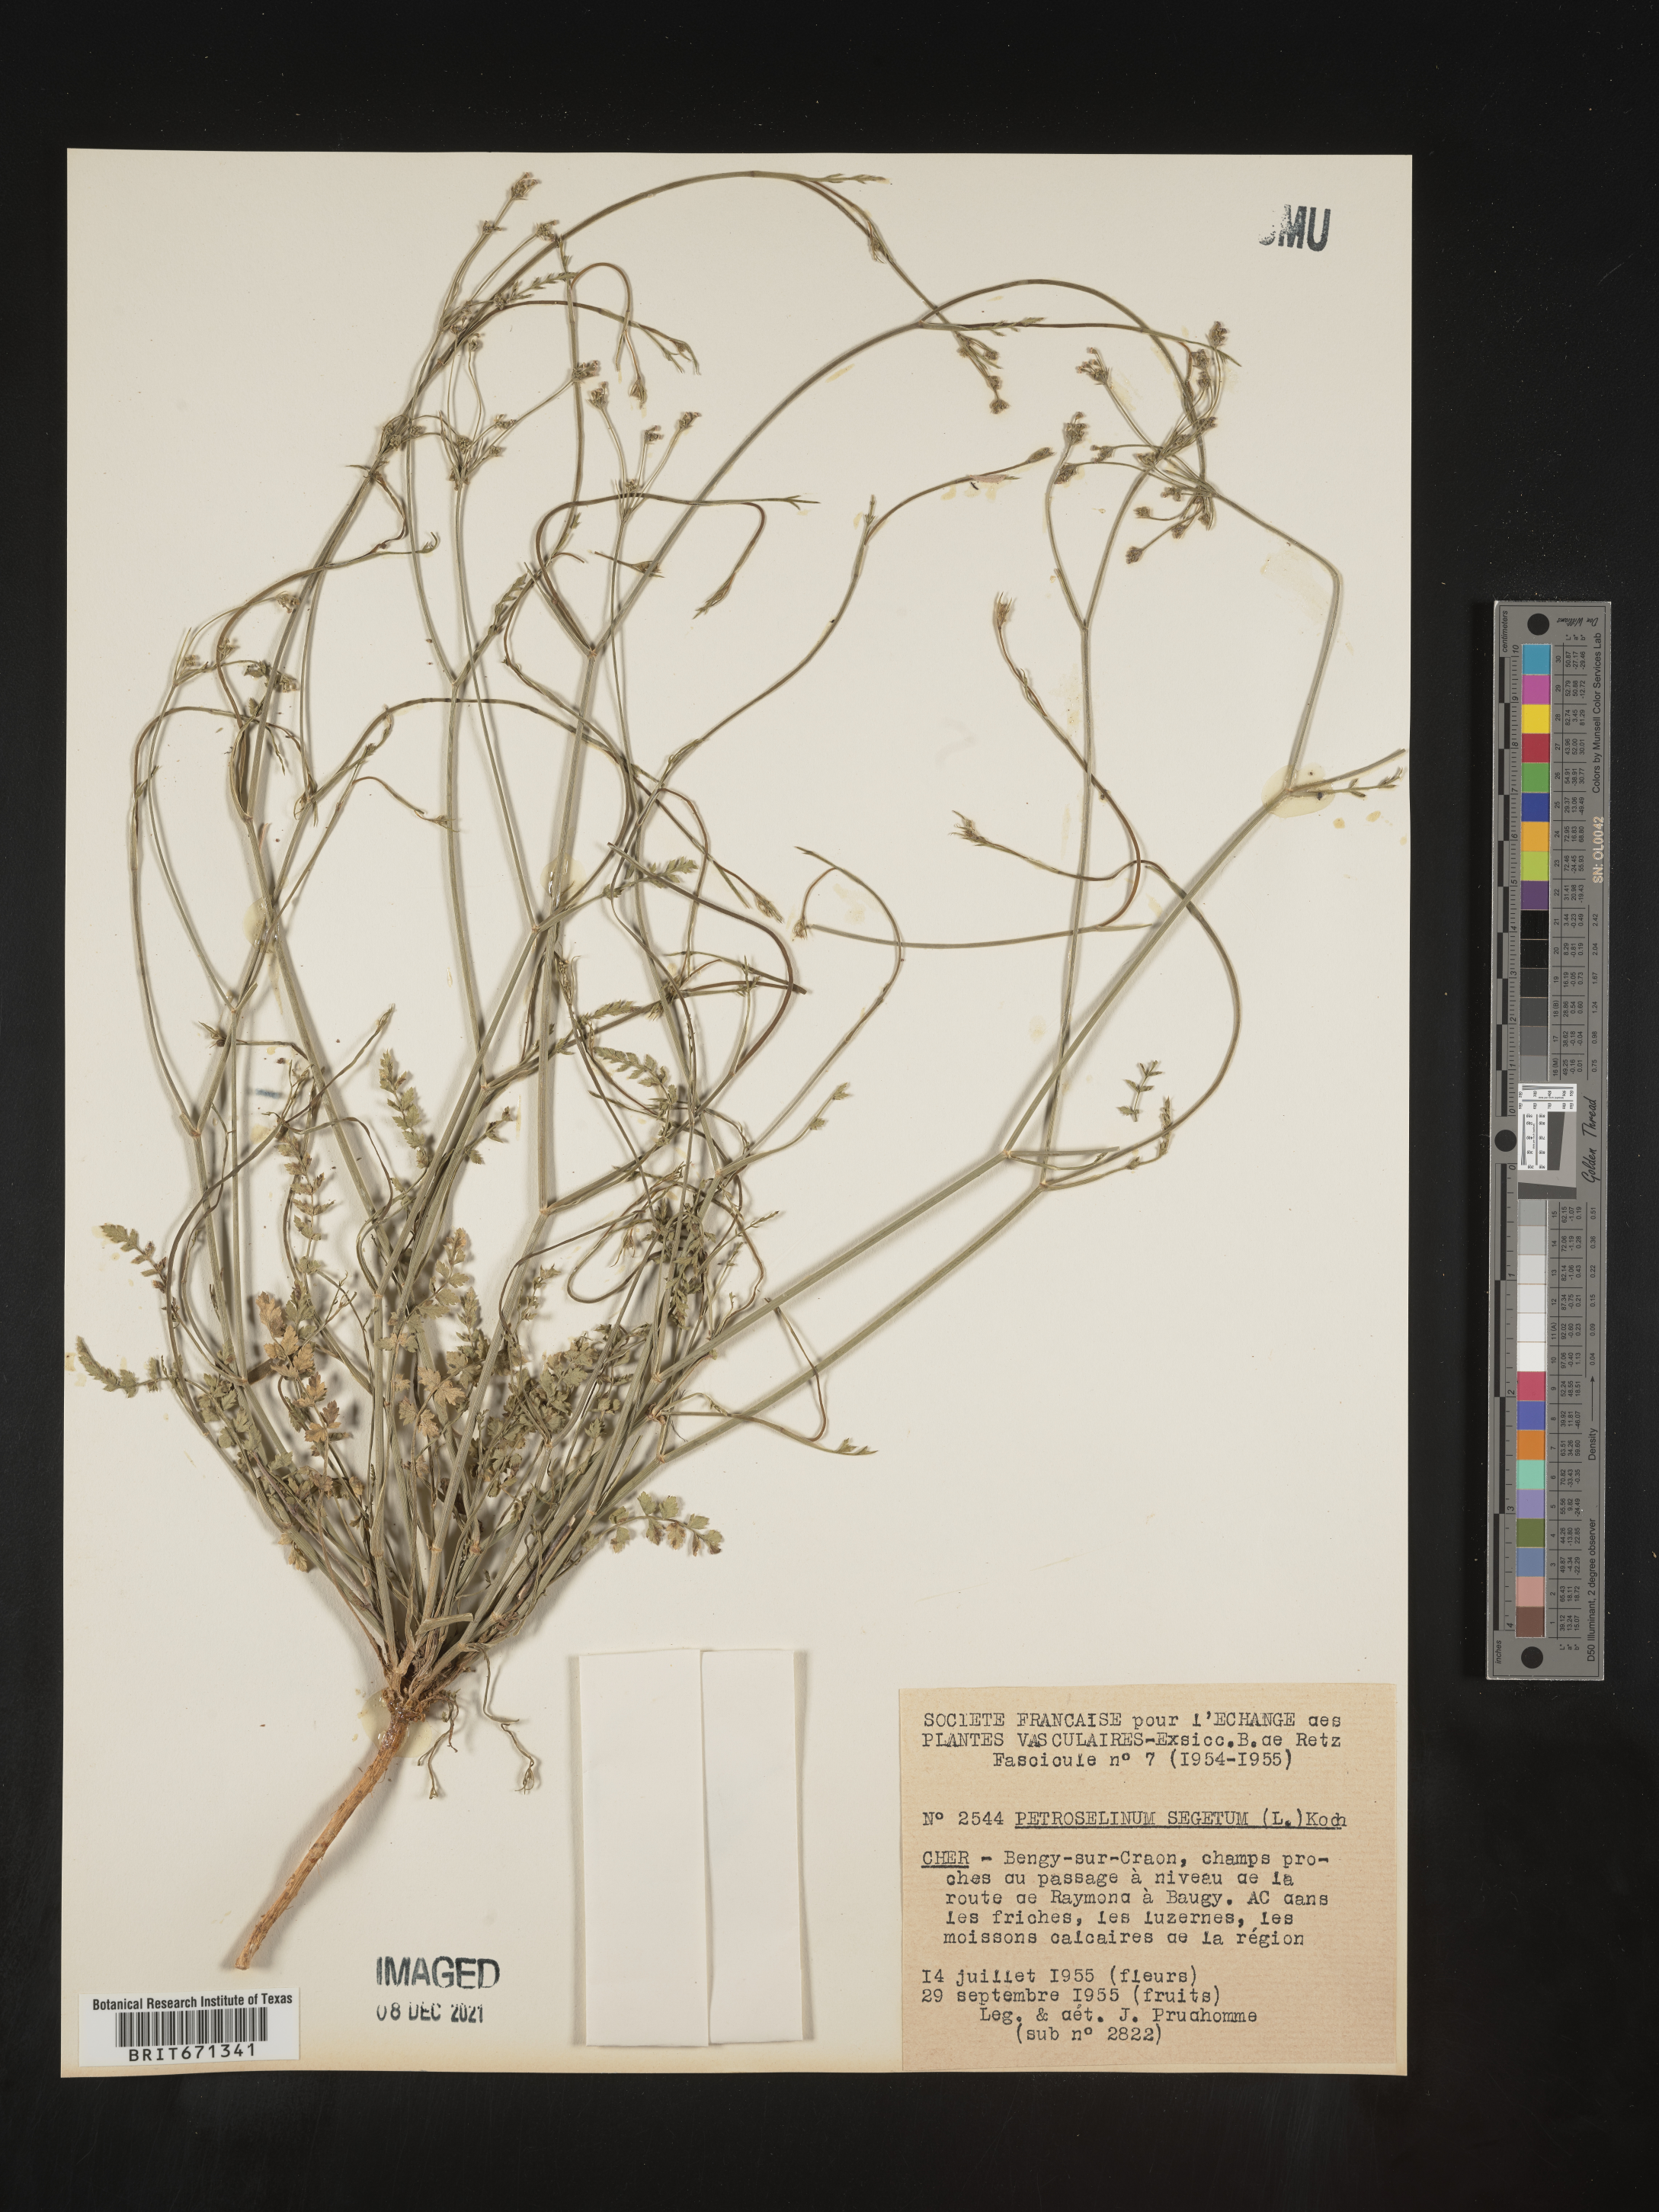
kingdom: Plantae
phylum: Tracheophyta
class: Magnoliopsida
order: Apiales
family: Apiaceae
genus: Petroselinum
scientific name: Petroselinum
